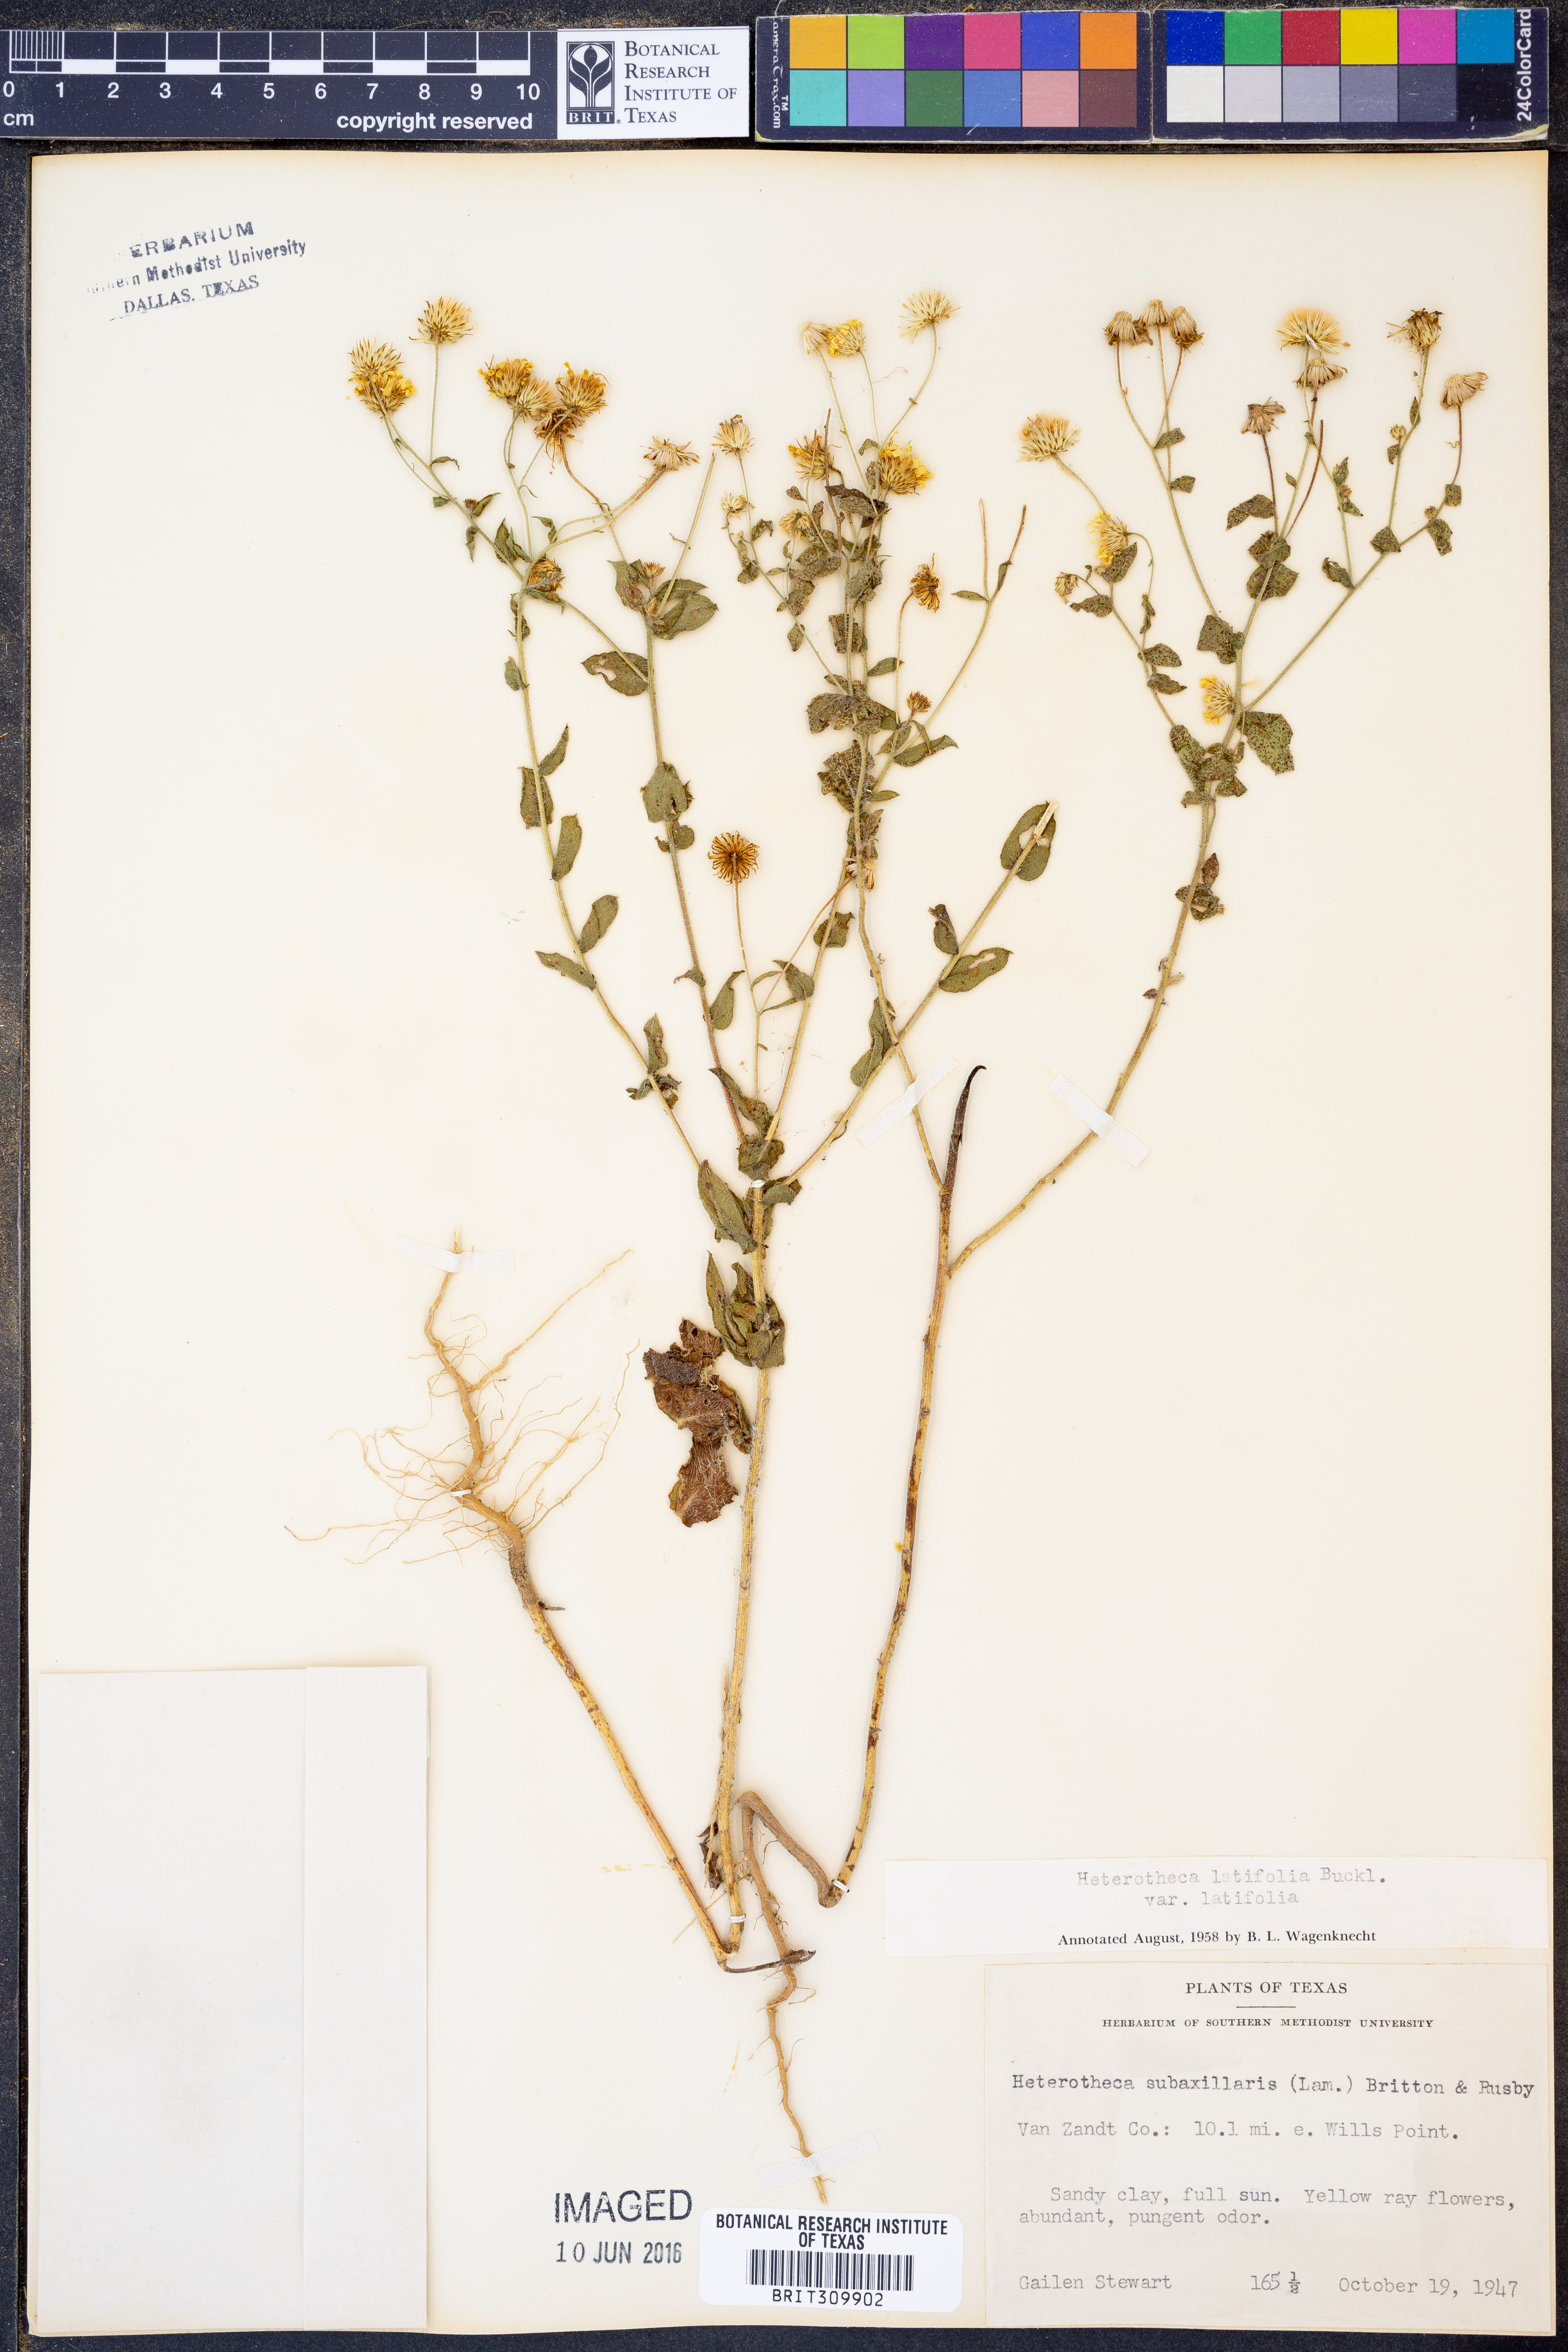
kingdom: Plantae
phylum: Tracheophyta
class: Magnoliopsida
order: Asterales
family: Asteraceae
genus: Heterotheca
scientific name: Heterotheca subaxillaris
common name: Camphorweed
